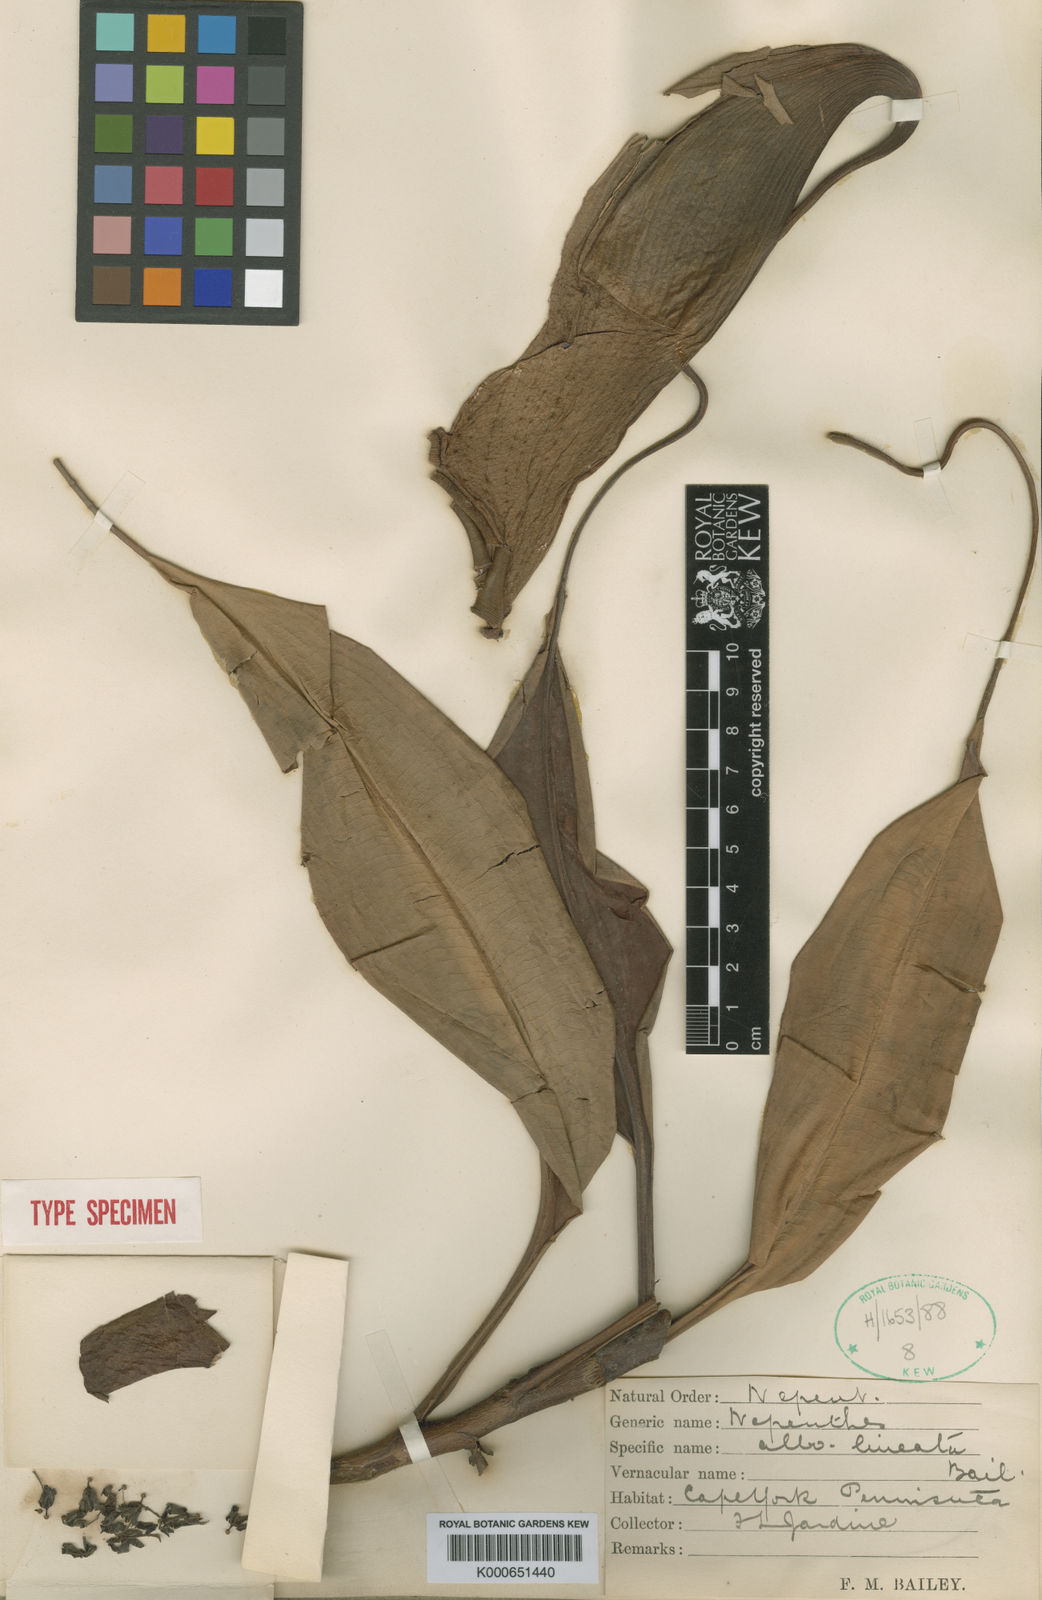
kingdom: Plantae
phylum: Tracheophyta
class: Magnoliopsida
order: Caryophyllales
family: Nepenthaceae
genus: Nepenthes
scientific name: Nepenthes mirabilis
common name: Tropical pitcherplant
